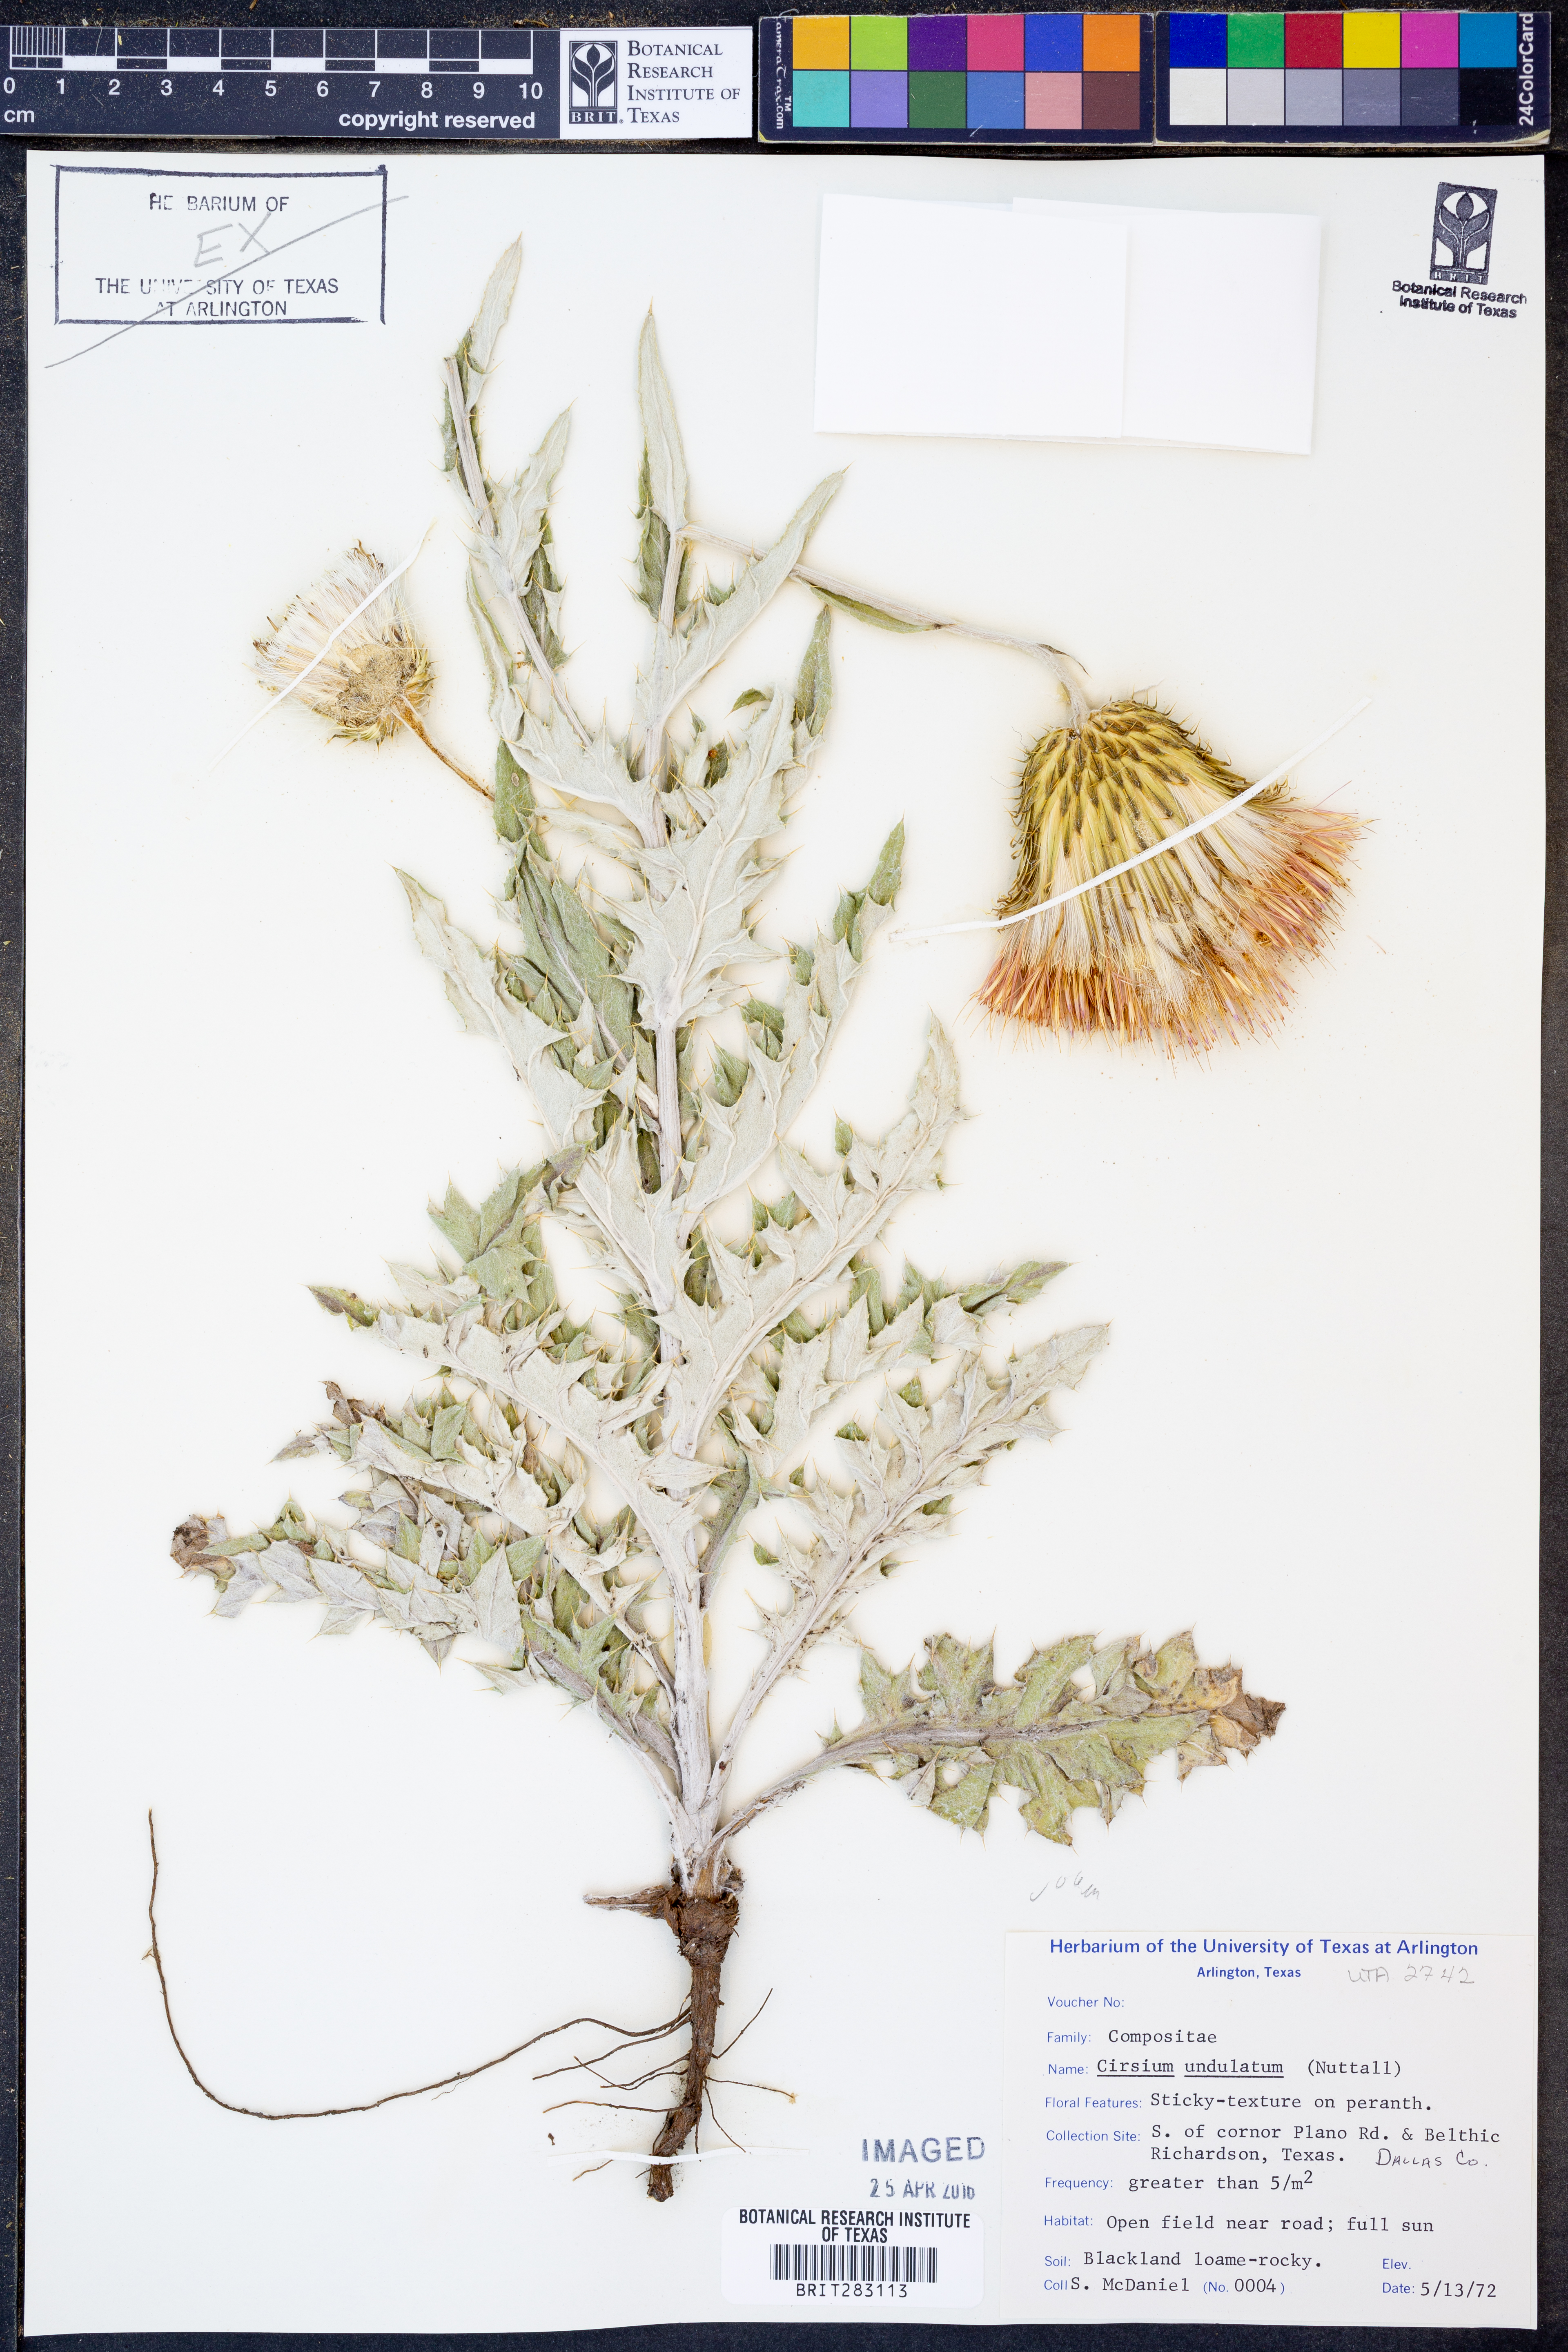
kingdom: Plantae
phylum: Tracheophyta
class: Magnoliopsida
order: Asterales
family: Asteraceae
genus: Cirsium
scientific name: Cirsium undulatum
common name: Pasture thistle
